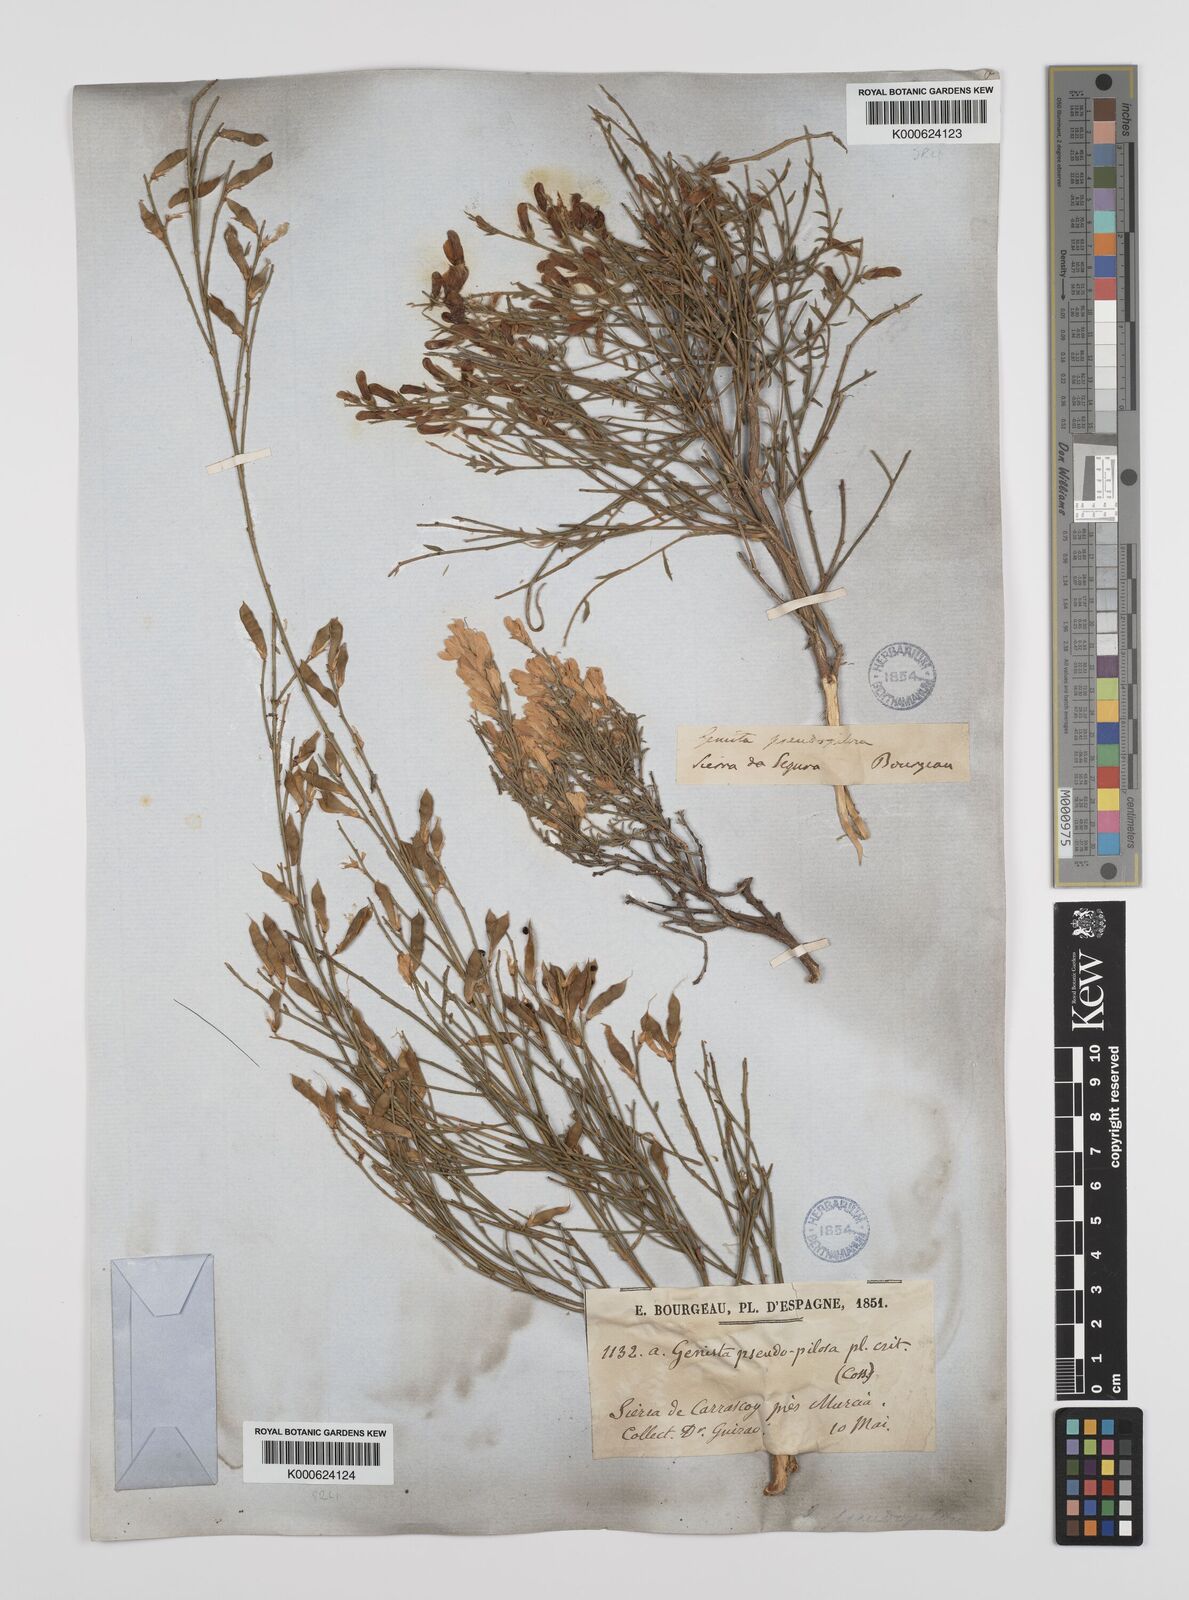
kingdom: Plantae
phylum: Tracheophyta
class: Magnoliopsida
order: Fabales
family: Fabaceae
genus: Genista
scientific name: Genista pseudopilosa
